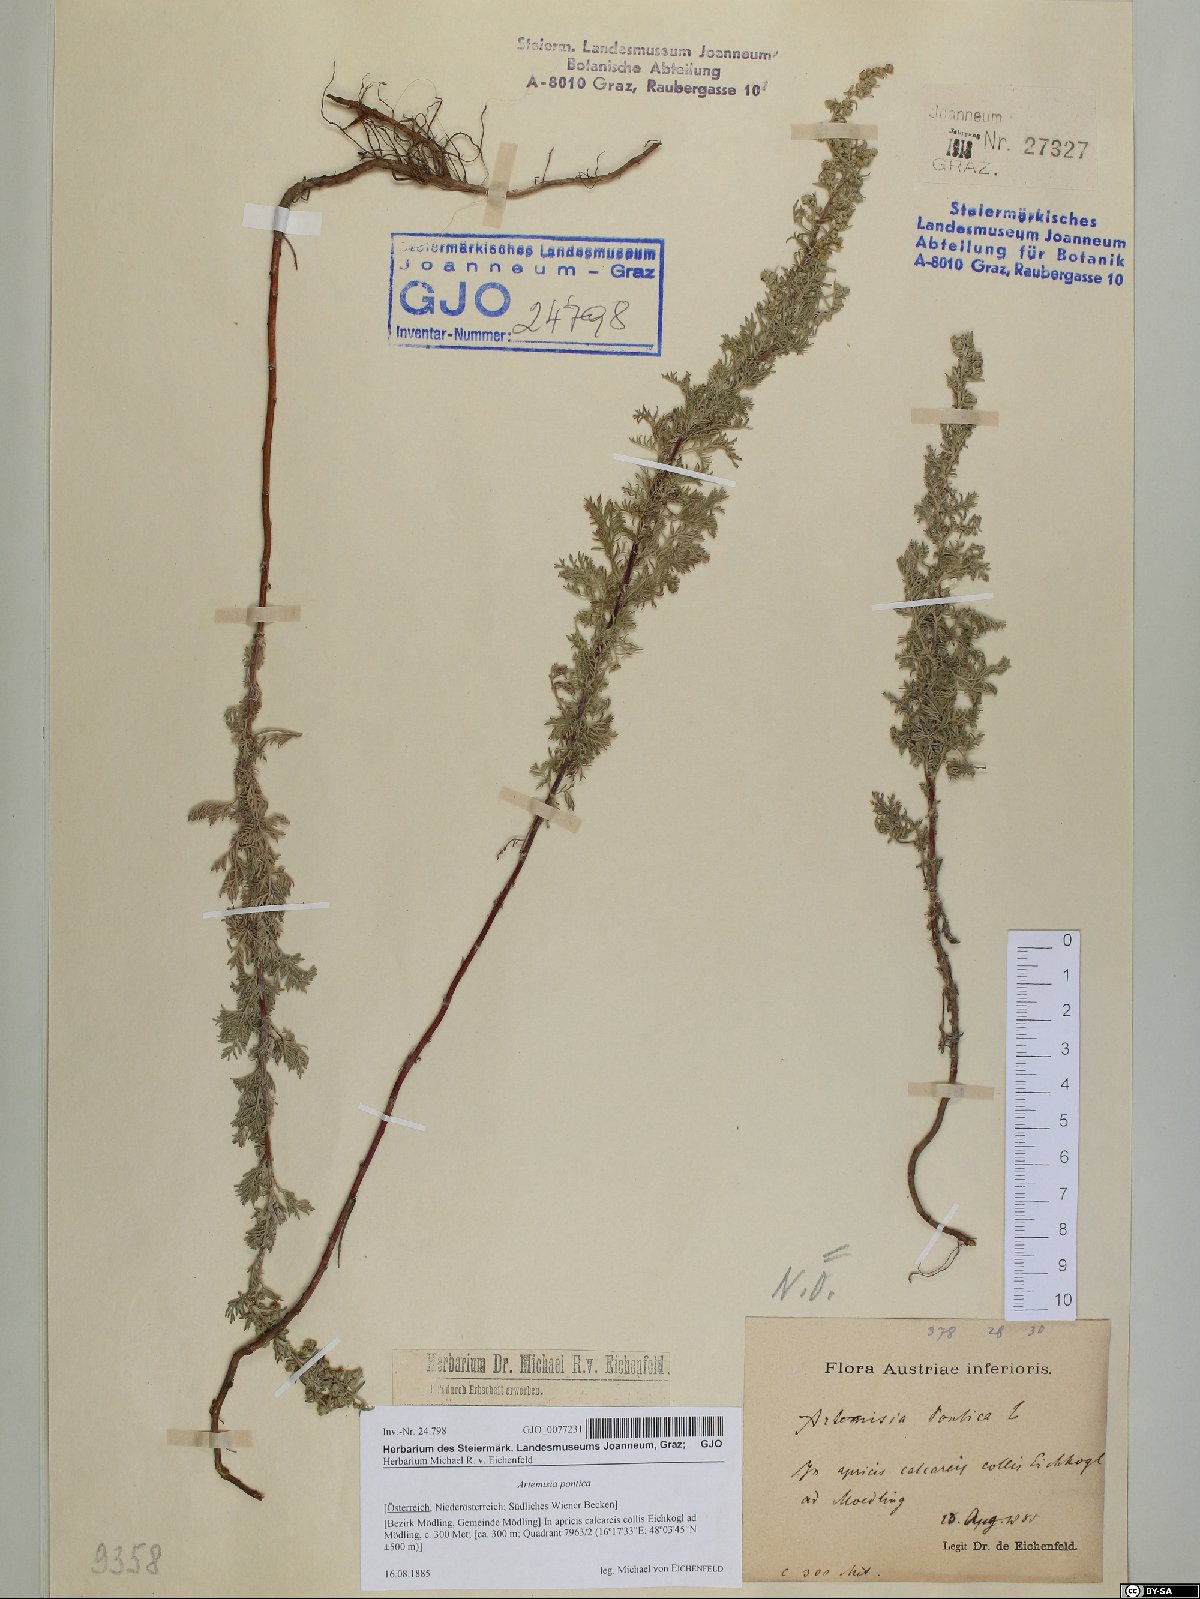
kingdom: Plantae
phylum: Tracheophyta
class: Magnoliopsida
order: Asterales
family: Asteraceae
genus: Artemisia
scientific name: Artemisia pontica
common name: Roman wormwood
